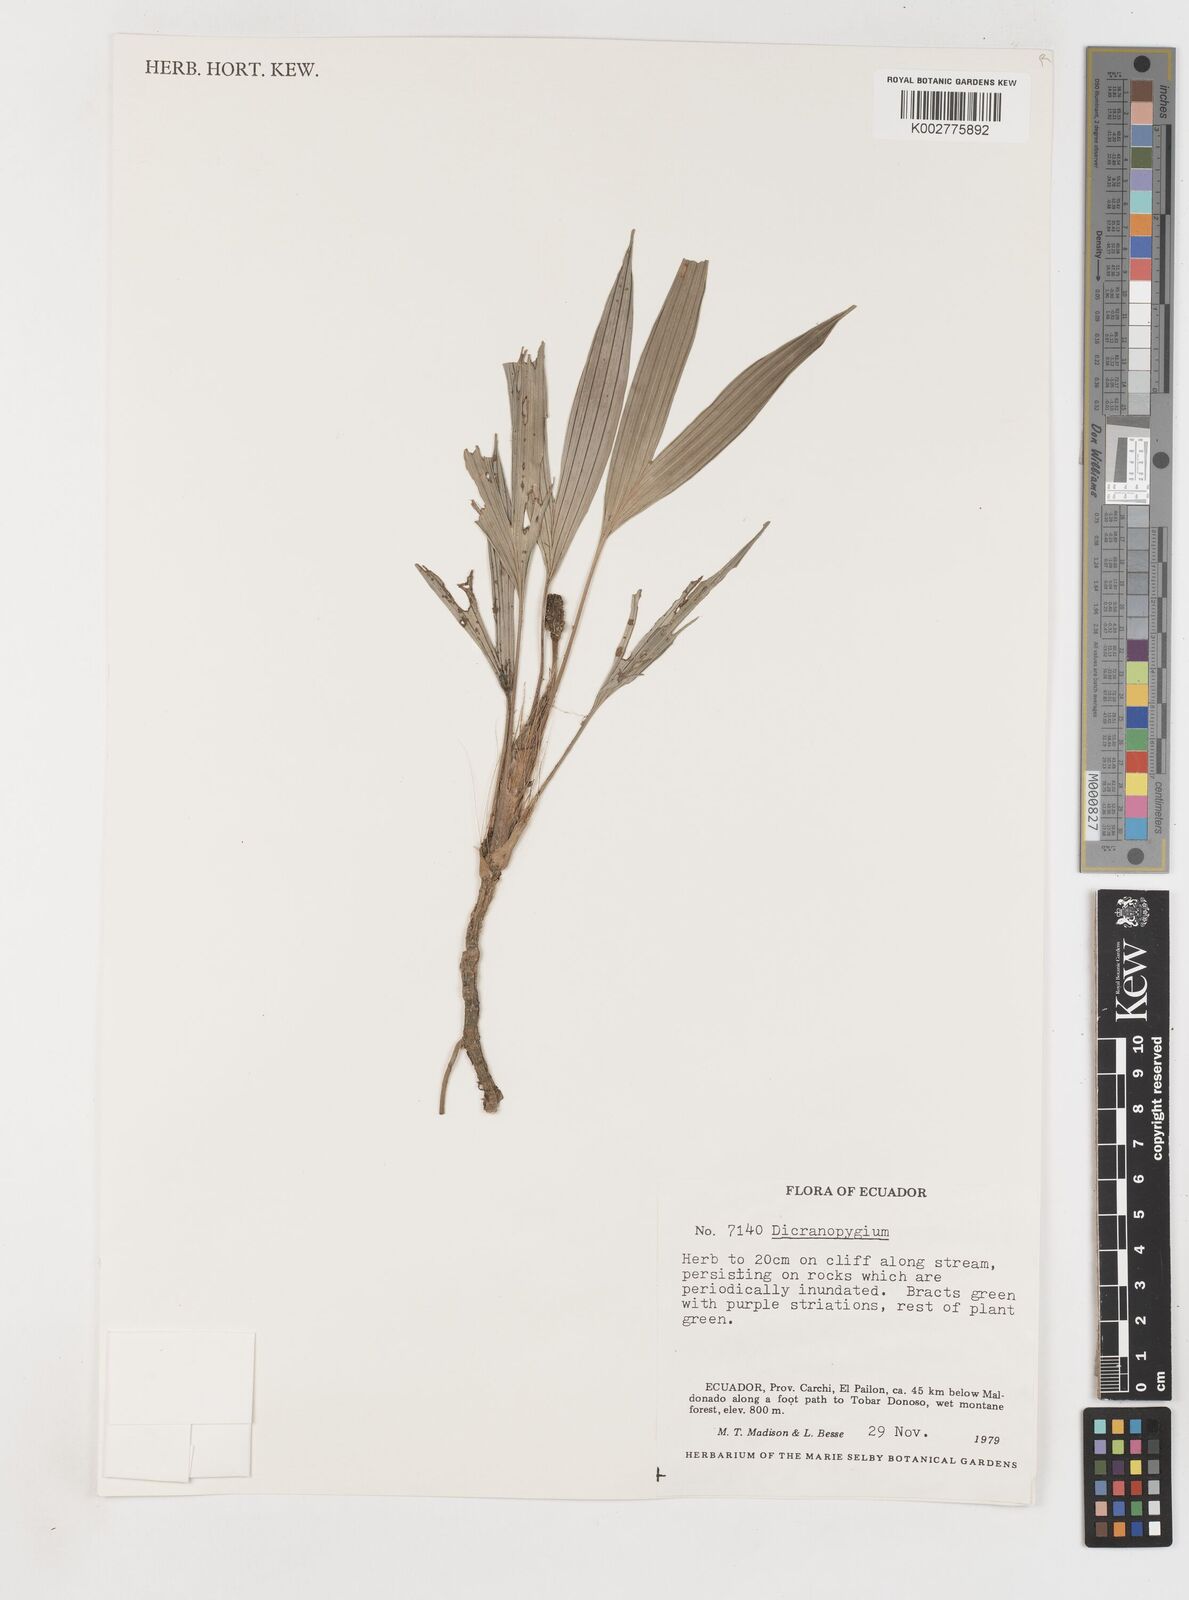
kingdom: Plantae
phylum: Tracheophyta
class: Liliopsida
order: Pandanales
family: Cyclanthaceae
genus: Dicranopygium
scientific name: Dicranopygium
